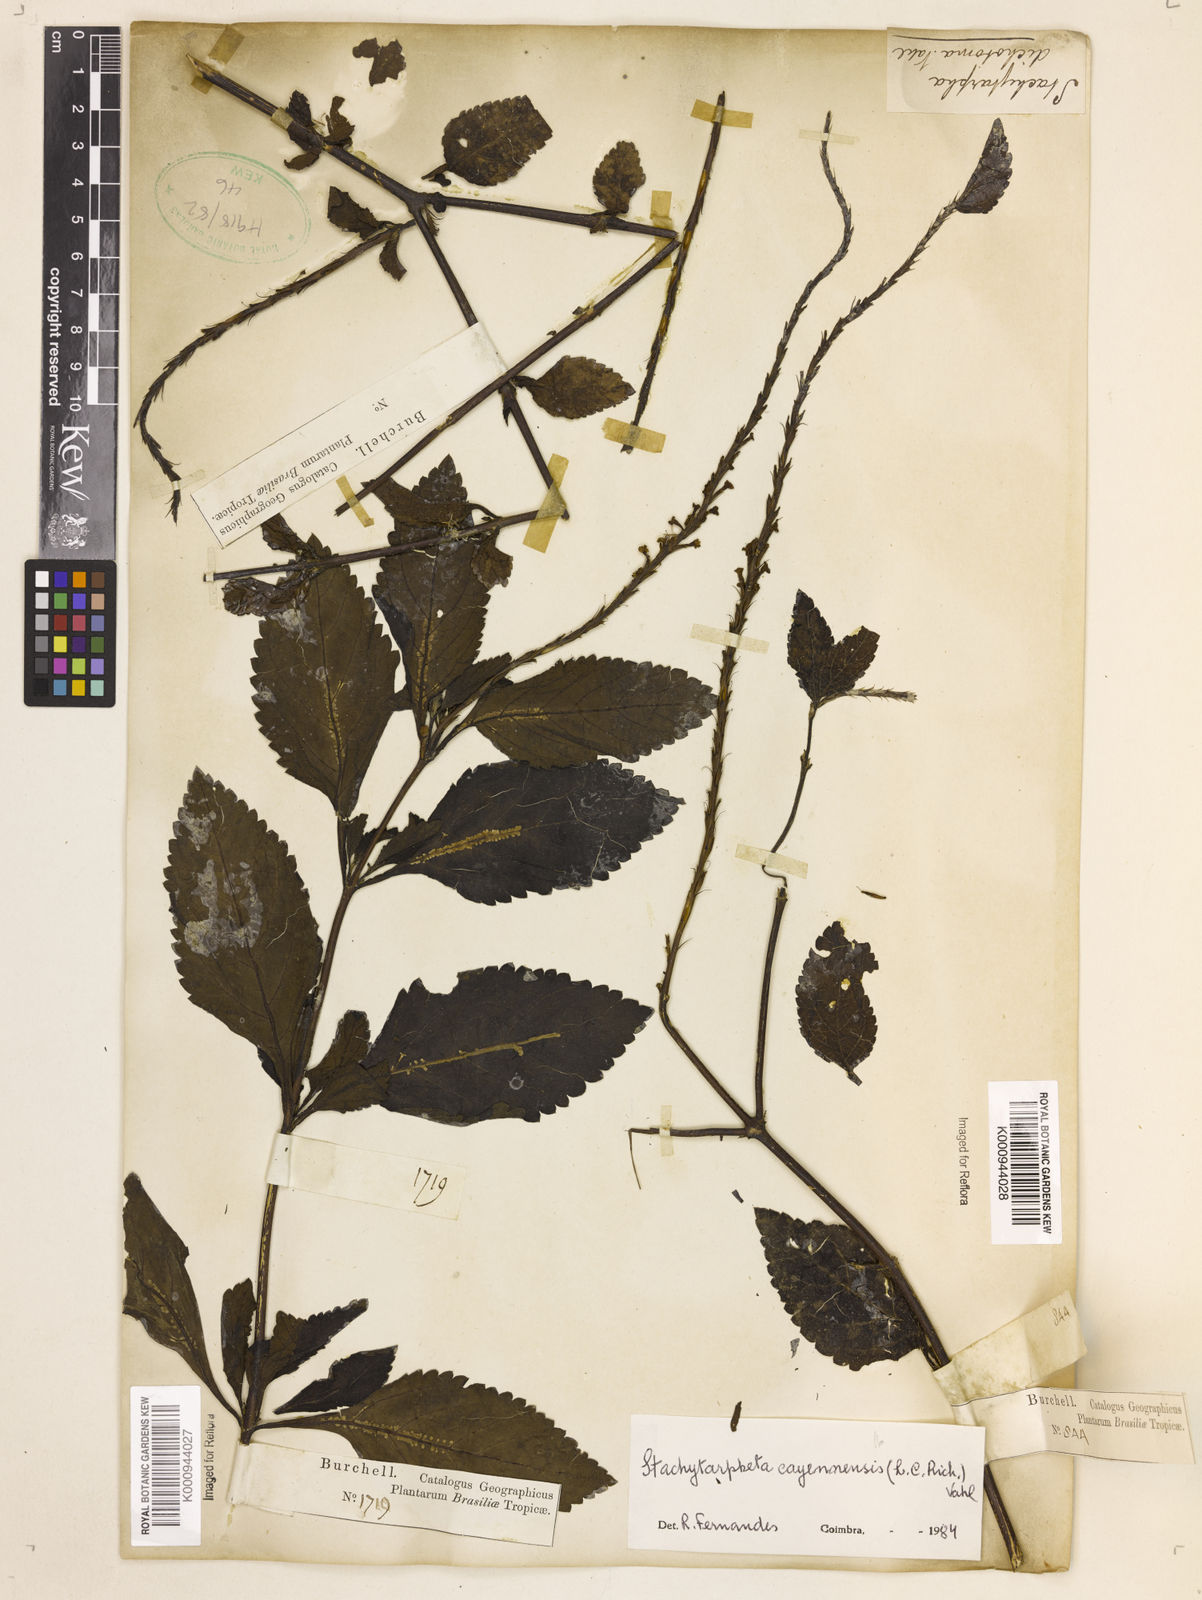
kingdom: Plantae
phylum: Tracheophyta
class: Magnoliopsida
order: Lamiales
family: Verbenaceae
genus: Aloysia
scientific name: Aloysia
